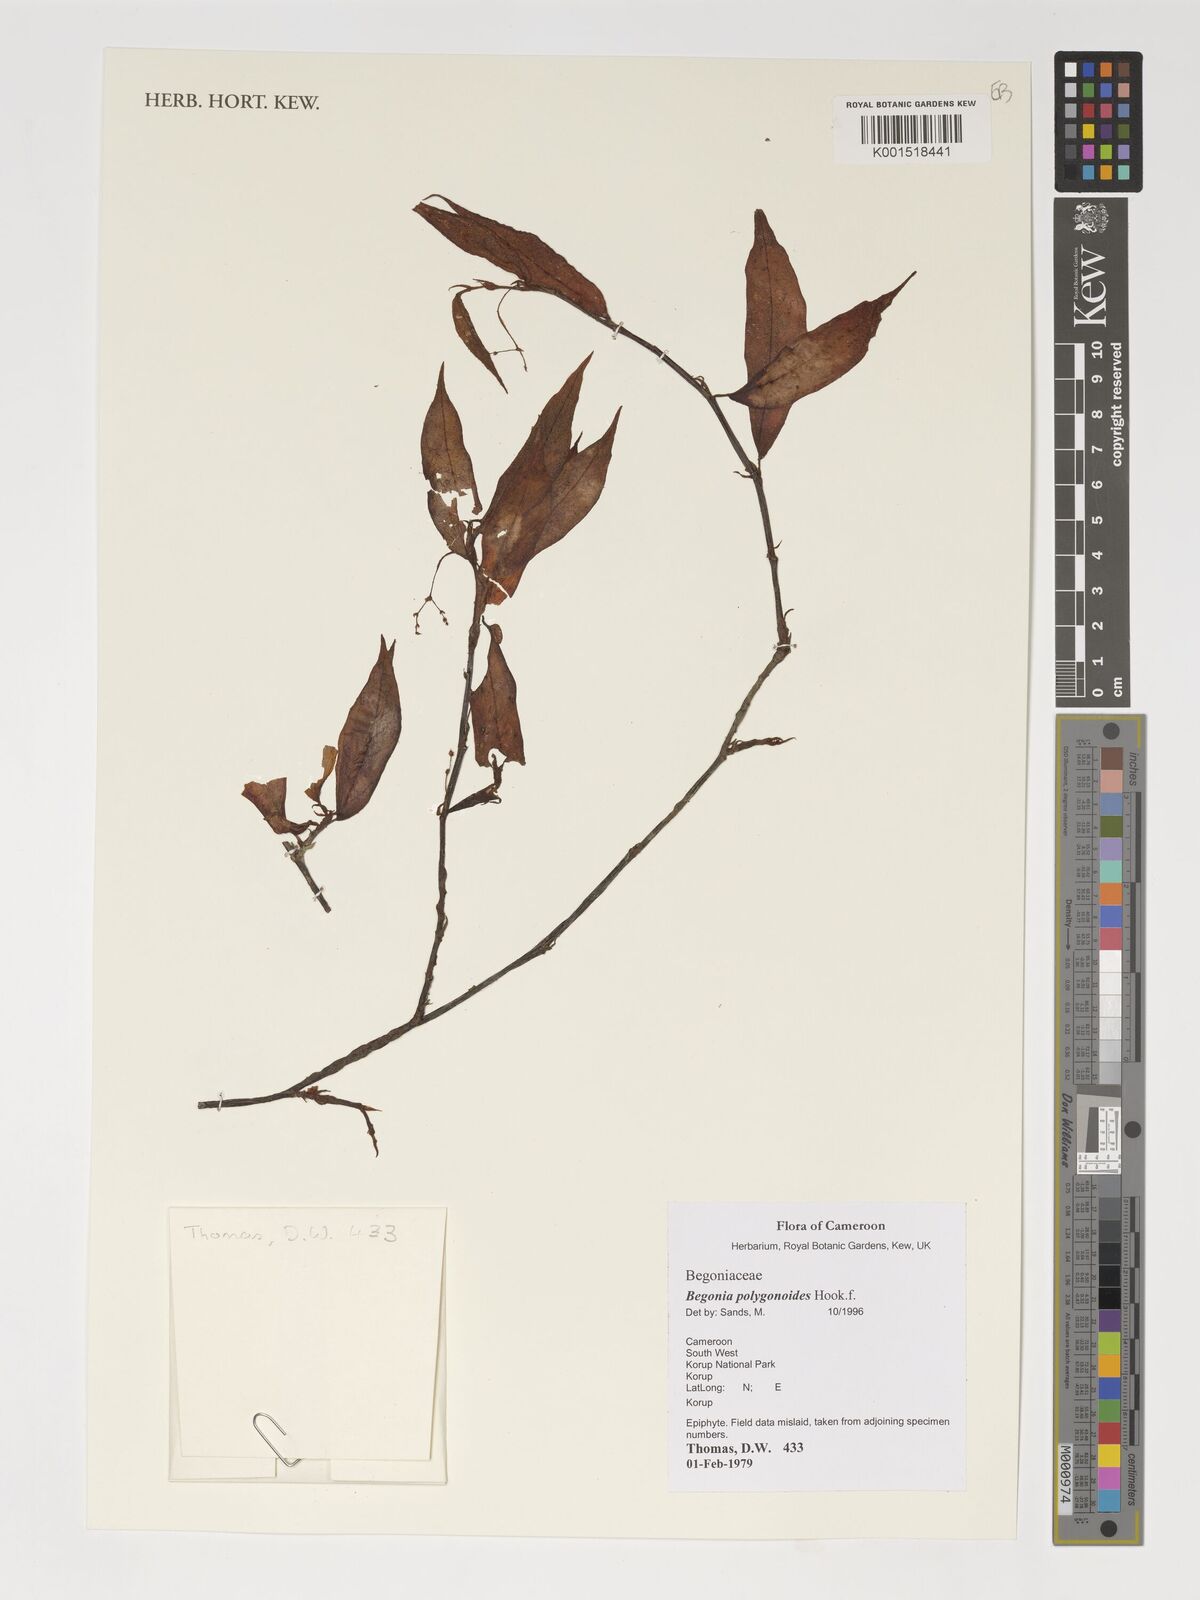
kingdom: Plantae
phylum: Tracheophyta
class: Magnoliopsida
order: Cucurbitales
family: Begoniaceae
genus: Begonia
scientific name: Begonia polygonoides
